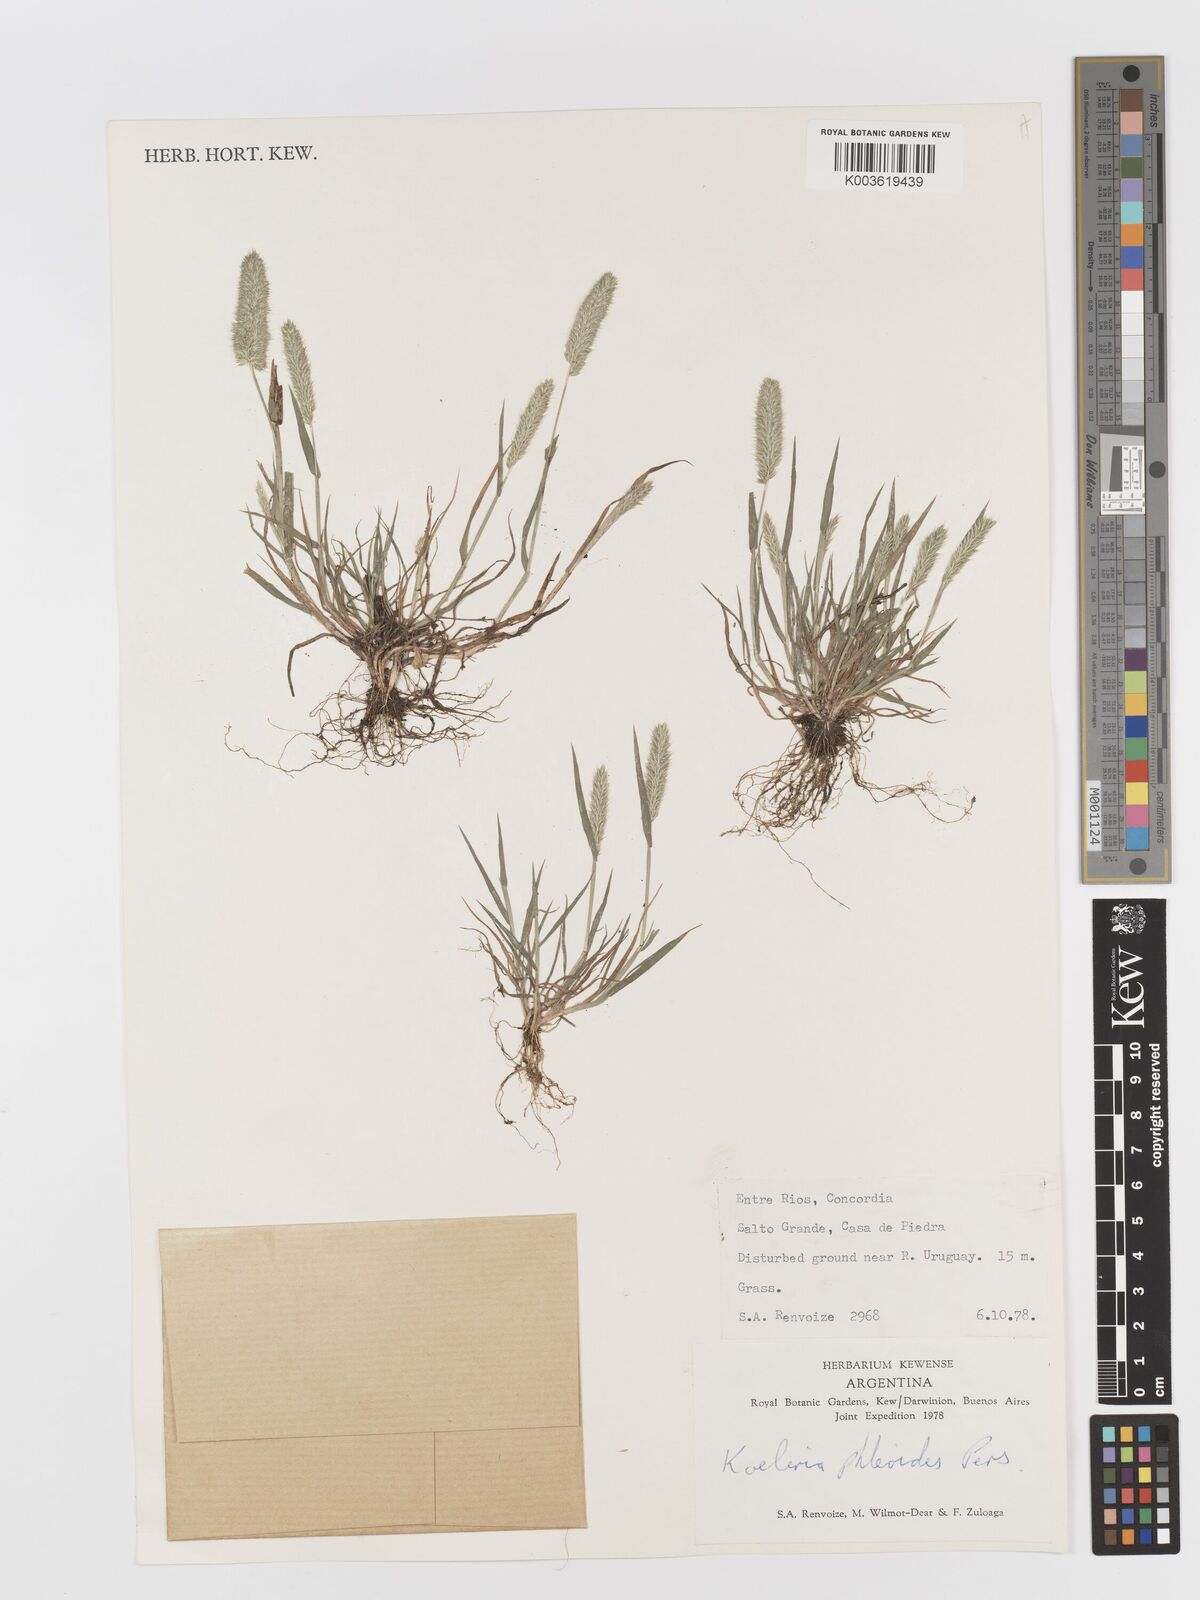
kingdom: Plantae
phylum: Tracheophyta
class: Liliopsida
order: Poales
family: Poaceae
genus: Rostraria
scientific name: Rostraria cristata
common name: Mediterranean hair-grass
